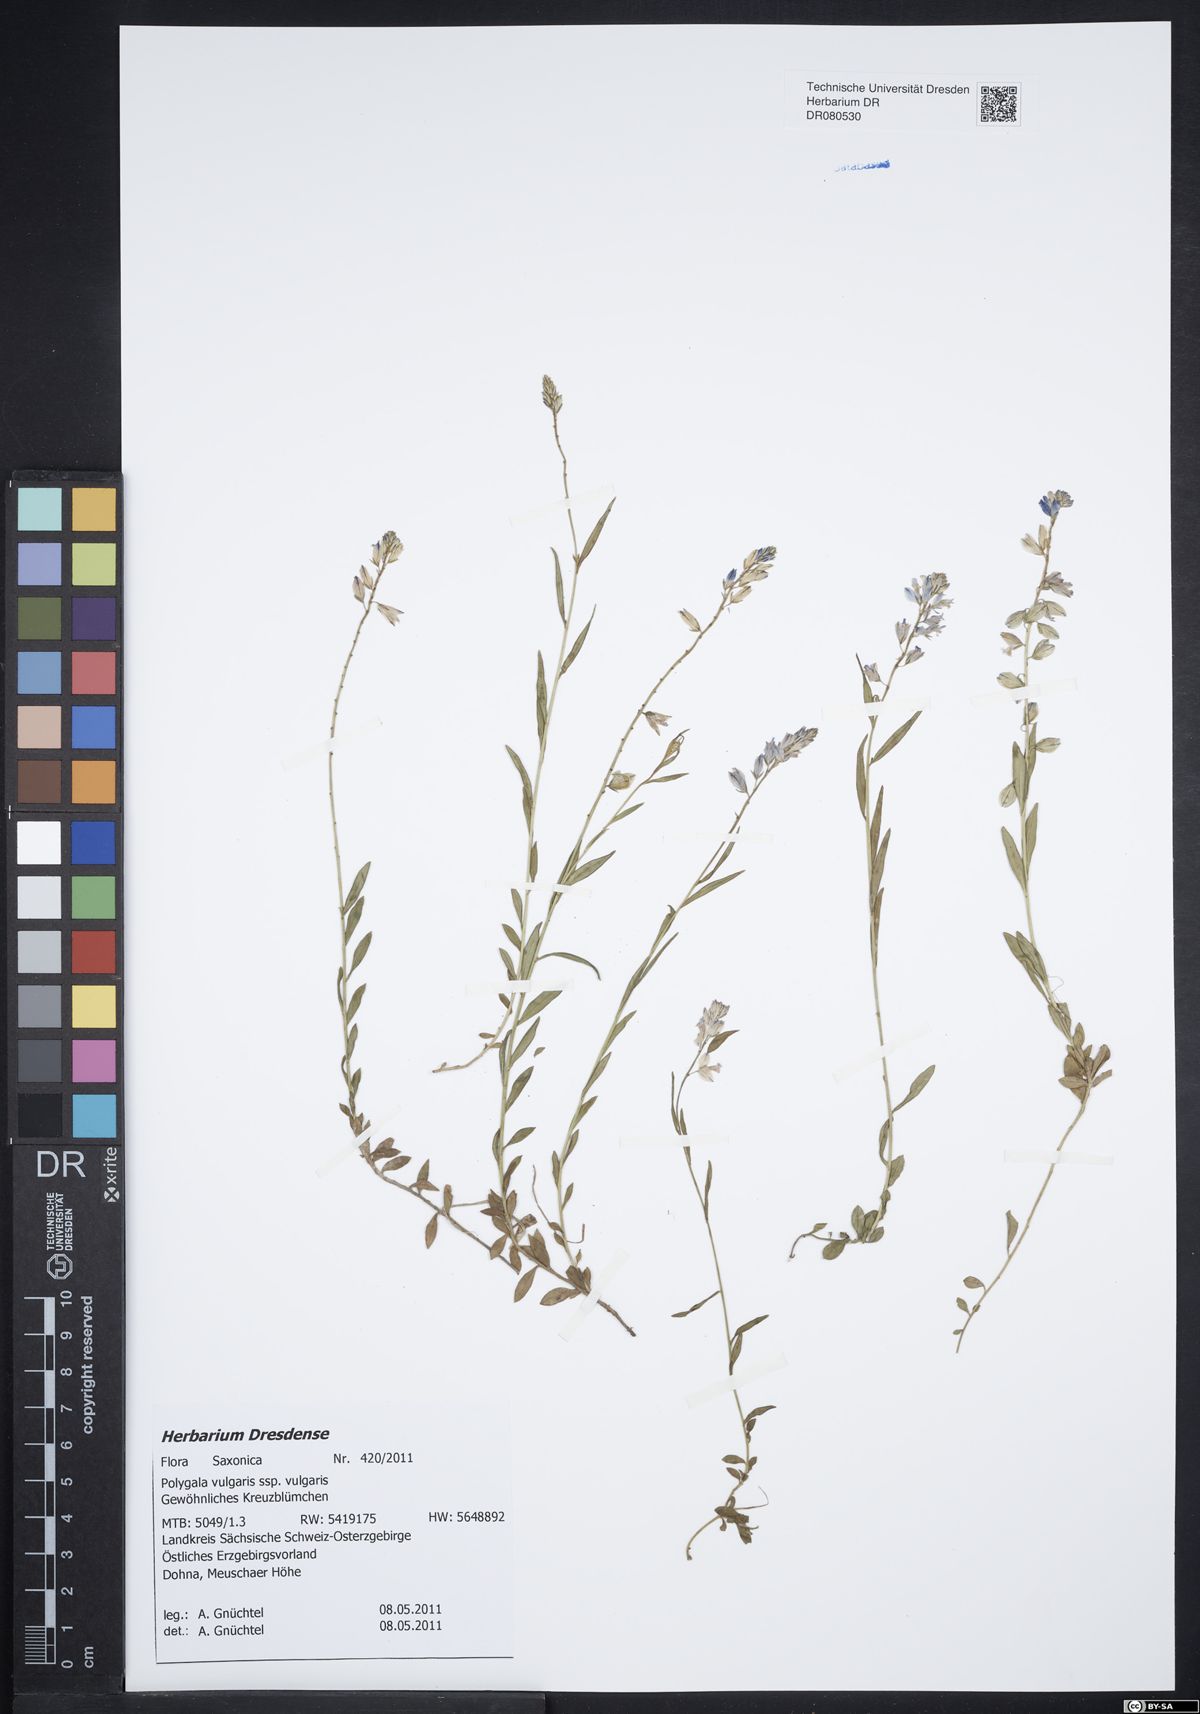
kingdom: Plantae
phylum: Tracheophyta
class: Magnoliopsida
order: Fabales
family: Polygalaceae
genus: Polygala
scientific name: Polygala vulgaris
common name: Common milkwort
